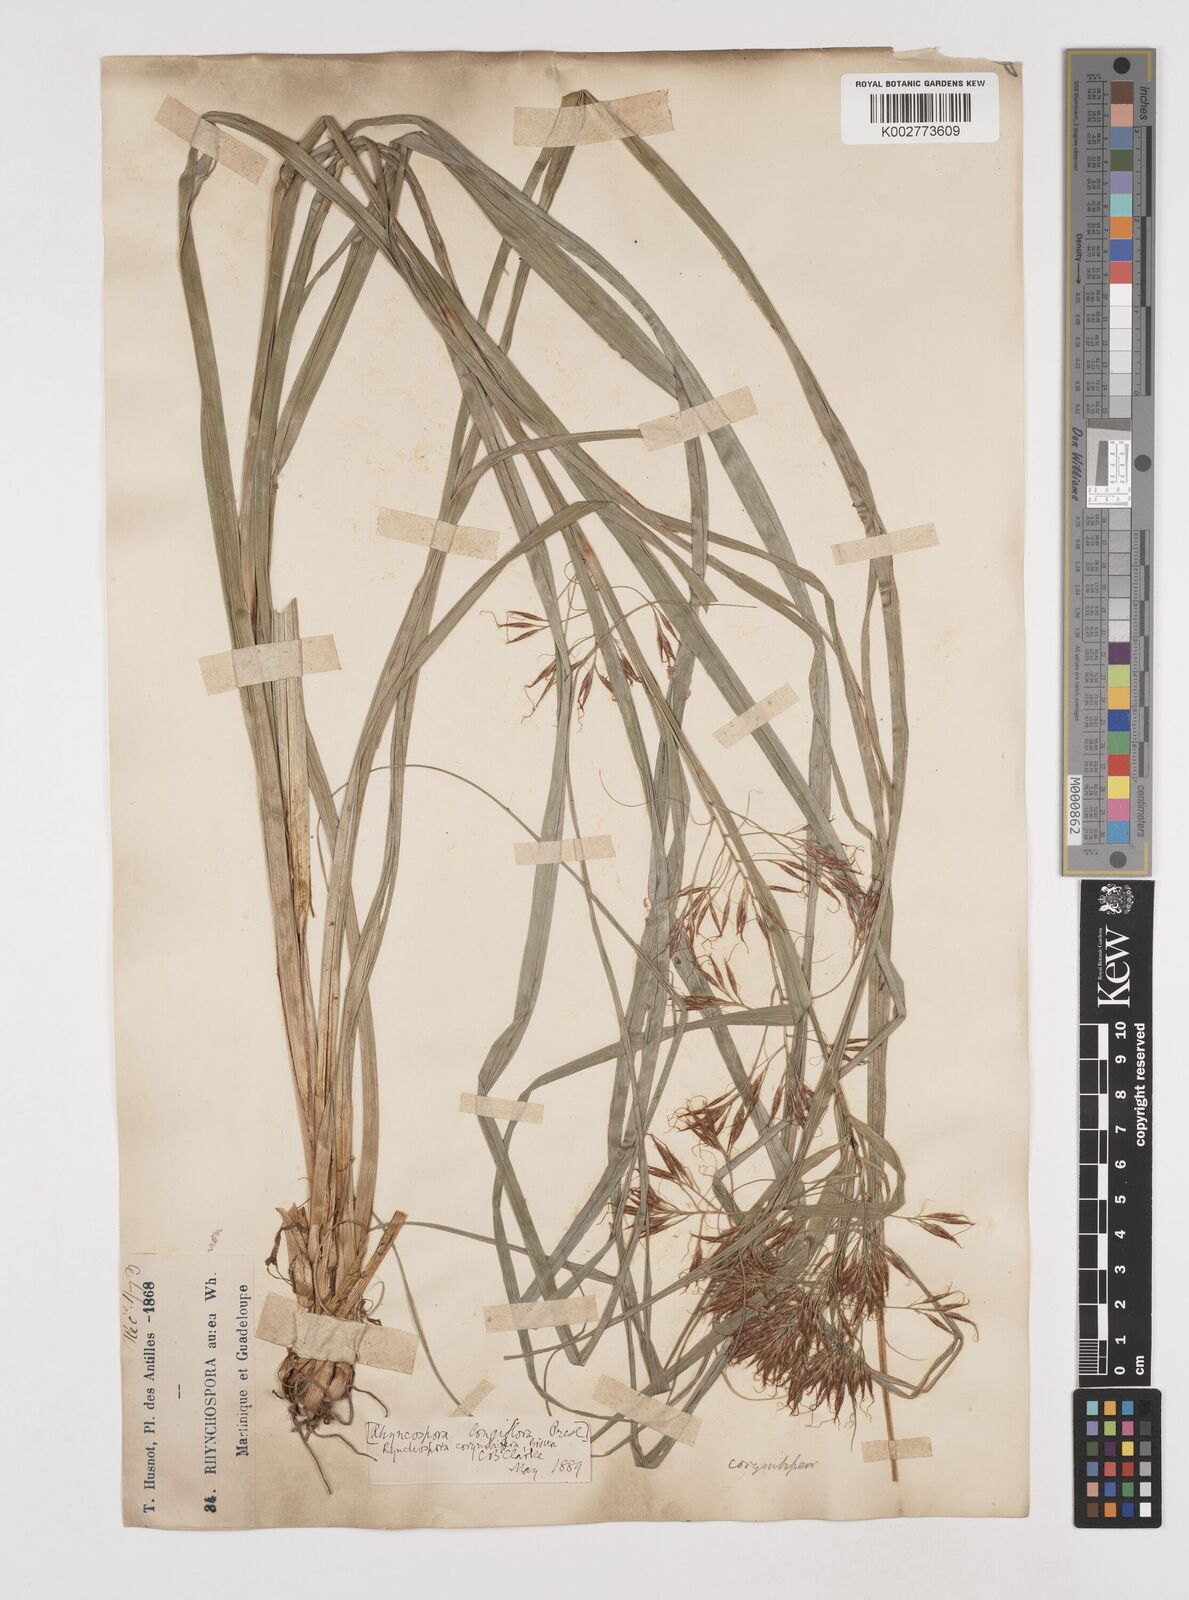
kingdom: Plantae
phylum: Tracheophyta
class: Liliopsida
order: Poales
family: Cyperaceae
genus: Rhynchospora
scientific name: Rhynchospora longiflora
